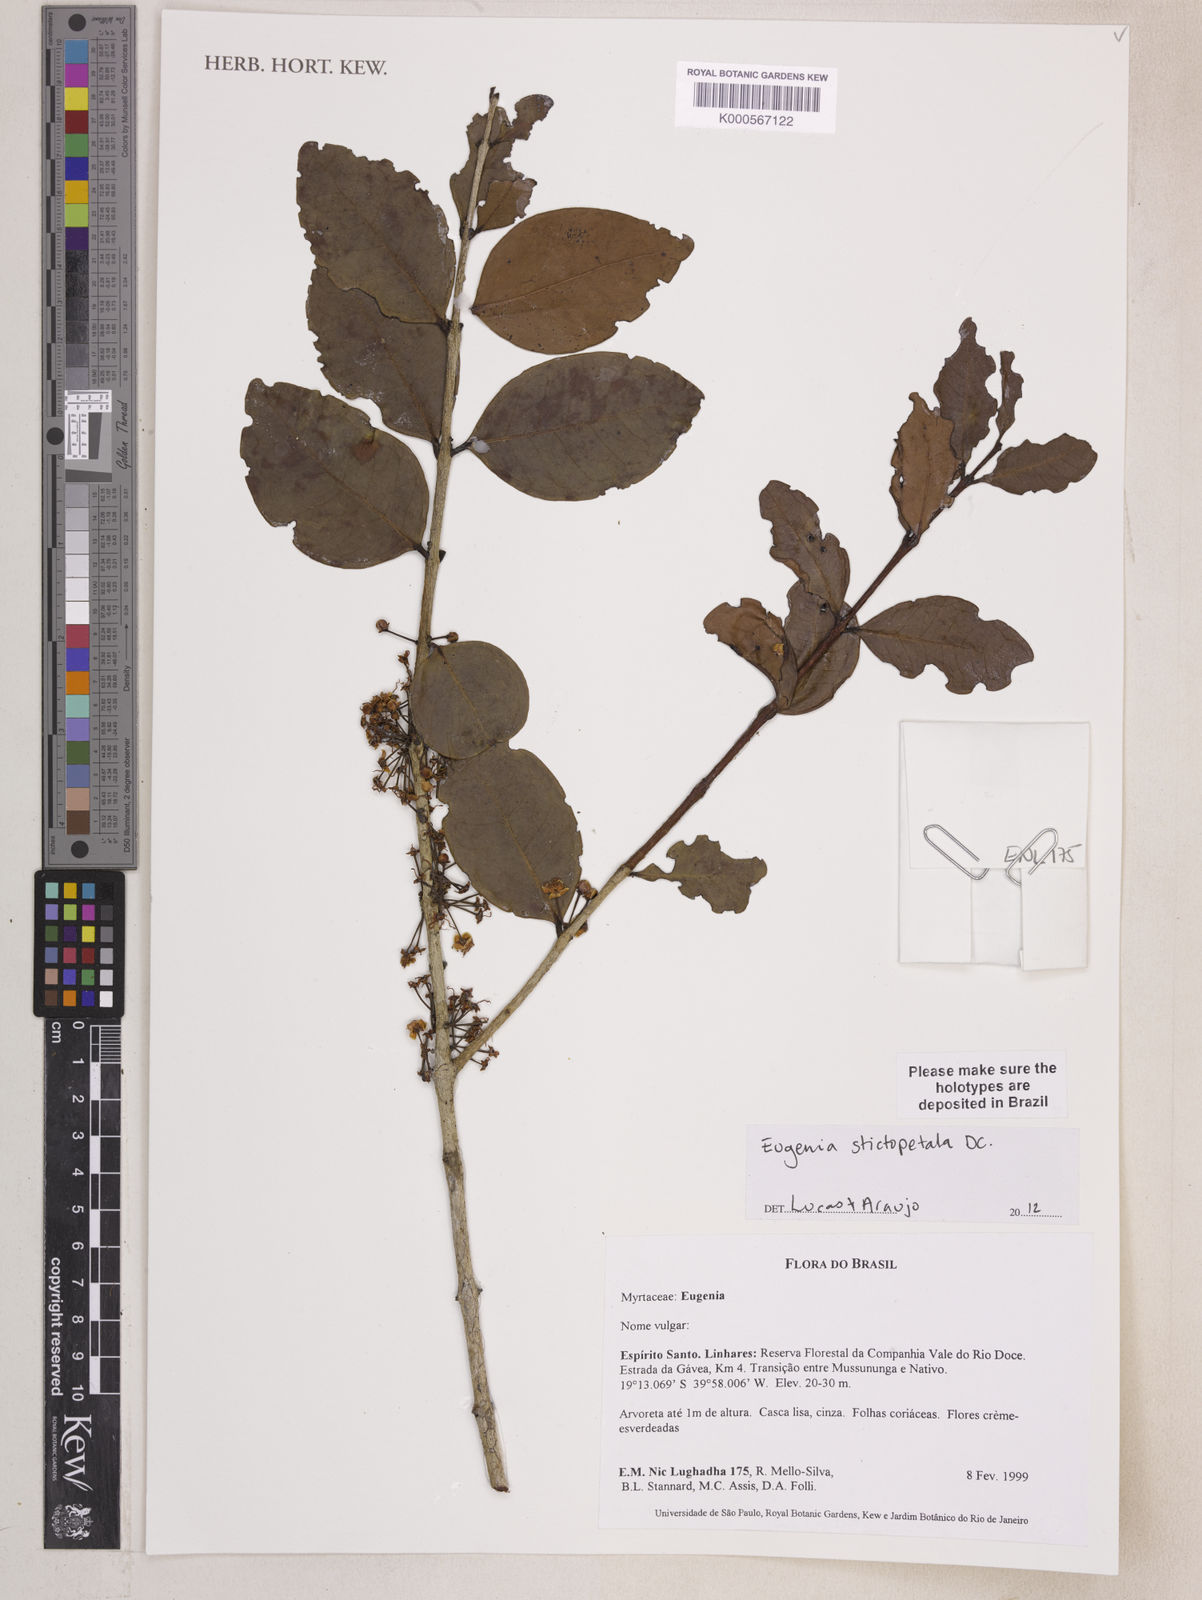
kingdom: Plantae
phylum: Tracheophyta
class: Magnoliopsida
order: Myrtales
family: Myrtaceae
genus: Eugenia
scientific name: Eugenia stictopetala
